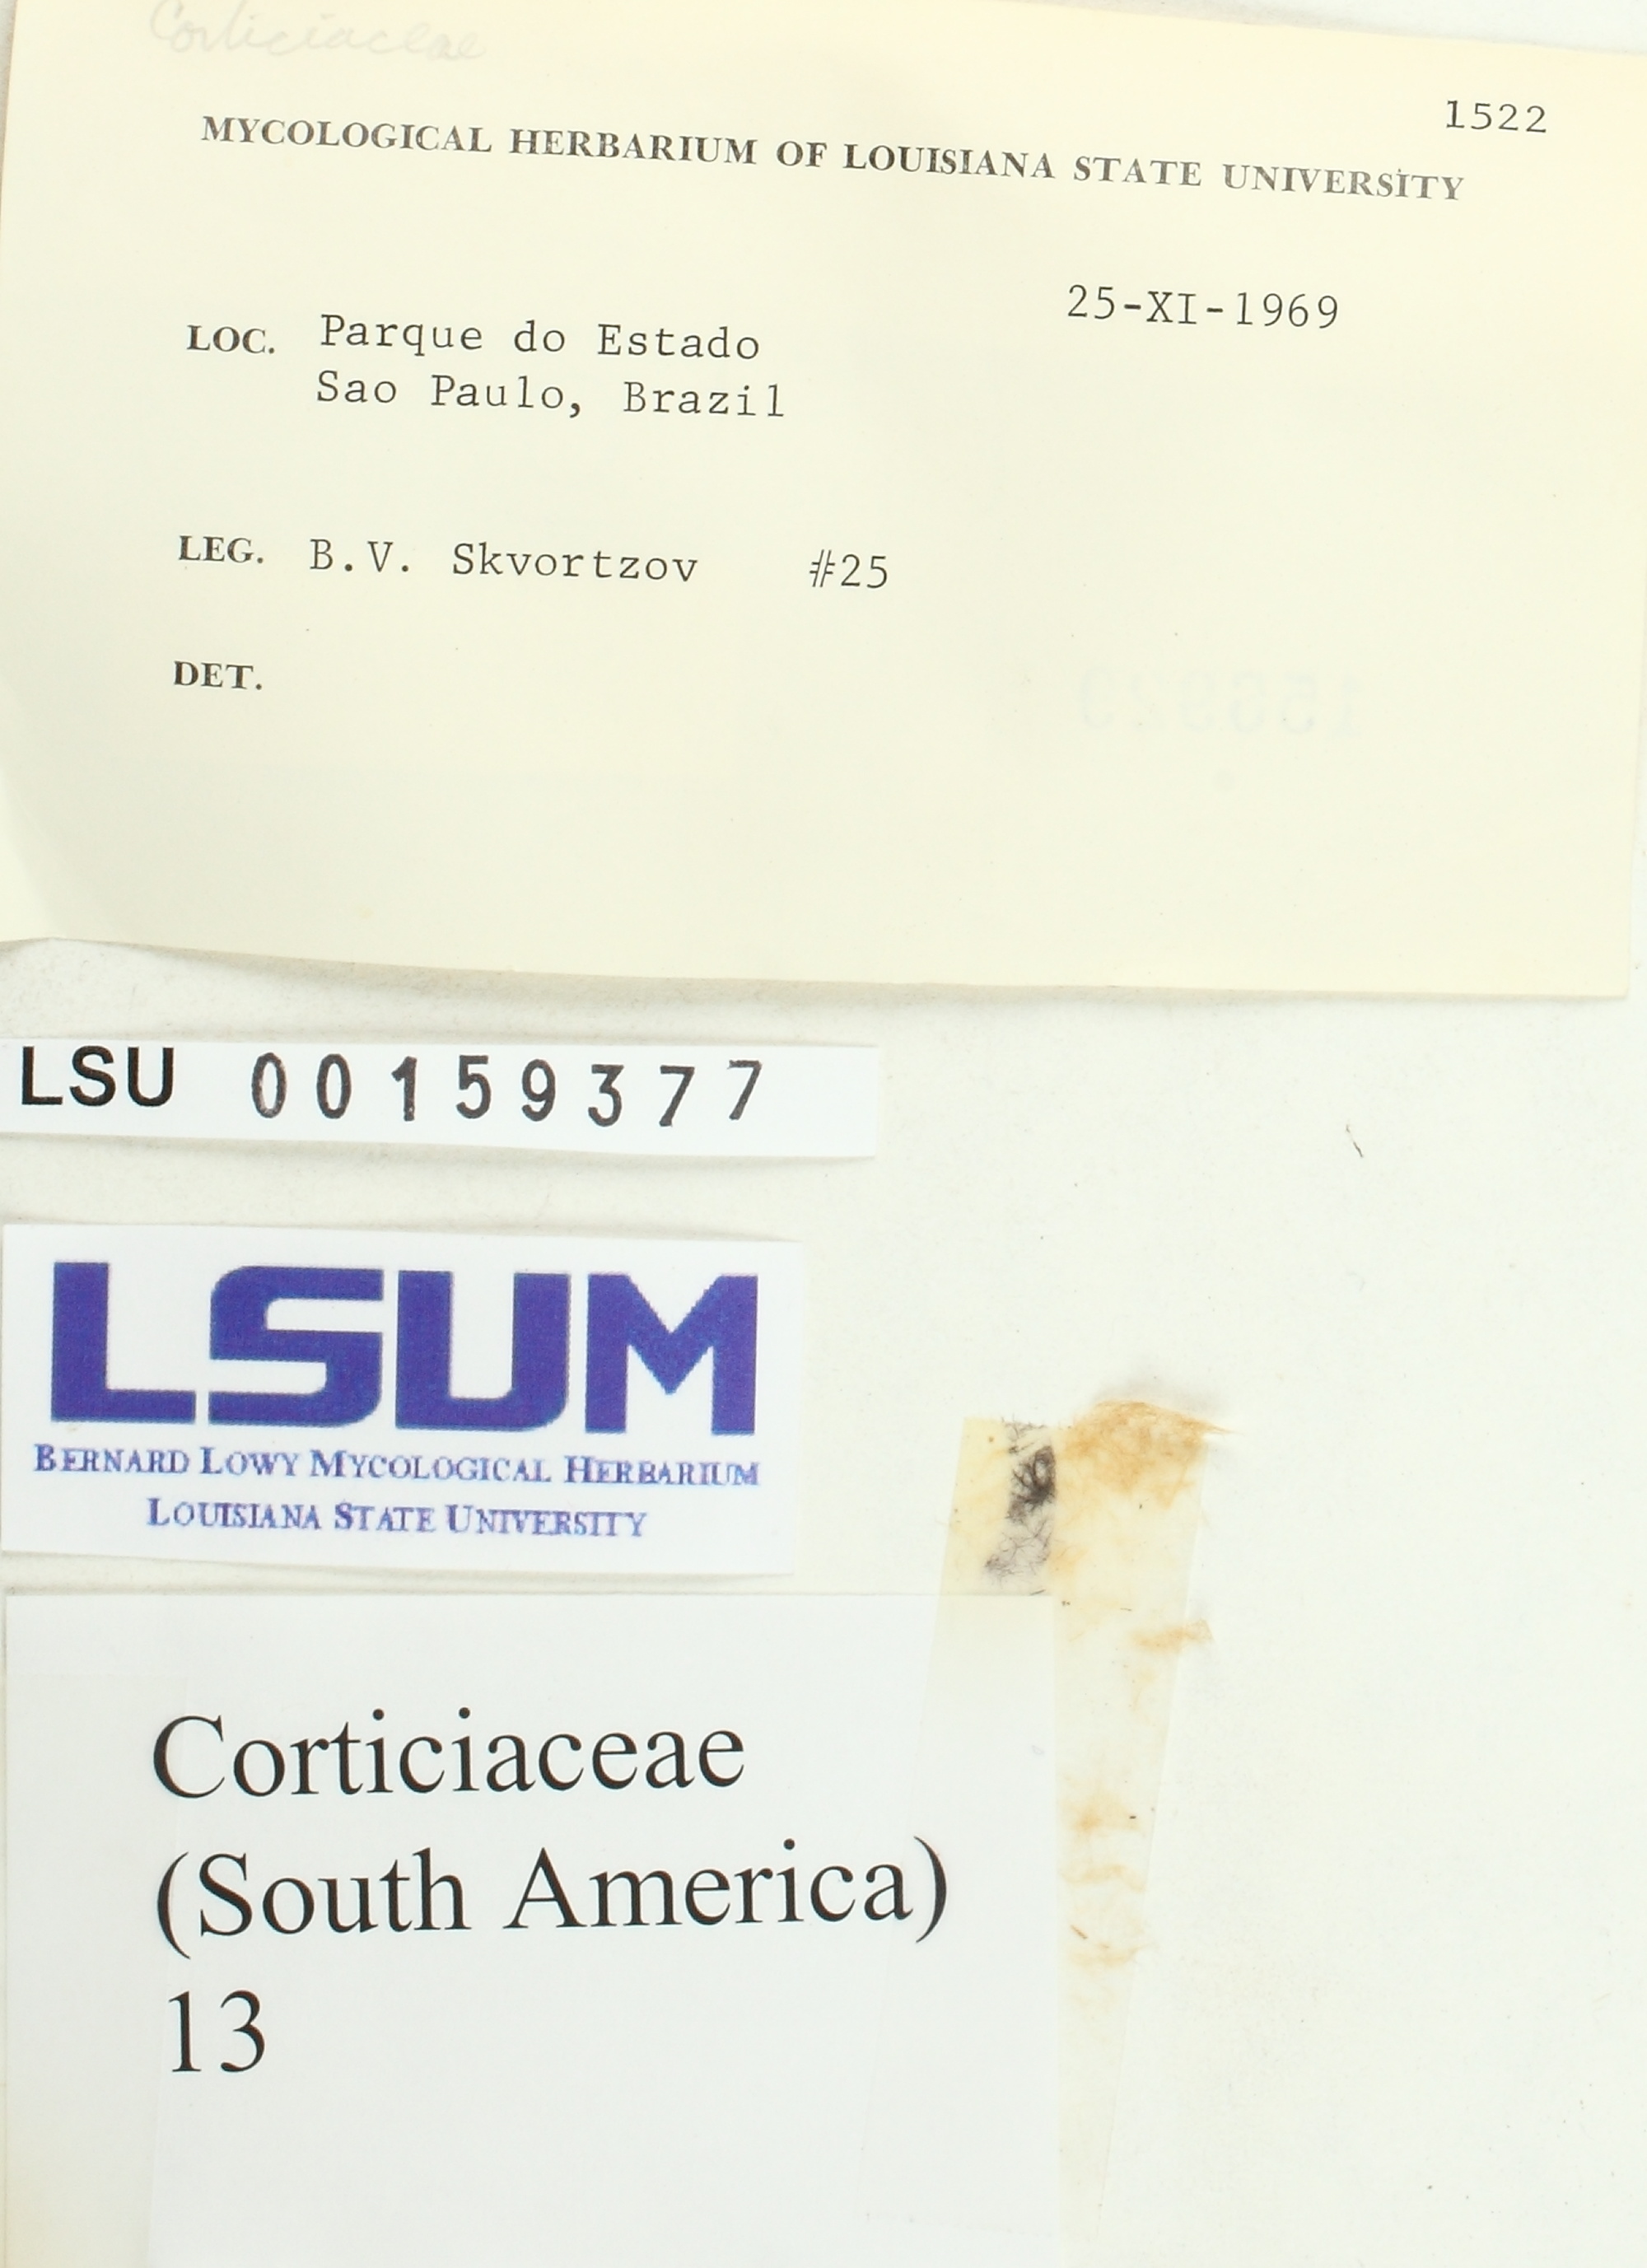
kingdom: Fungi
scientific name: Fungi
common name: Fungi
